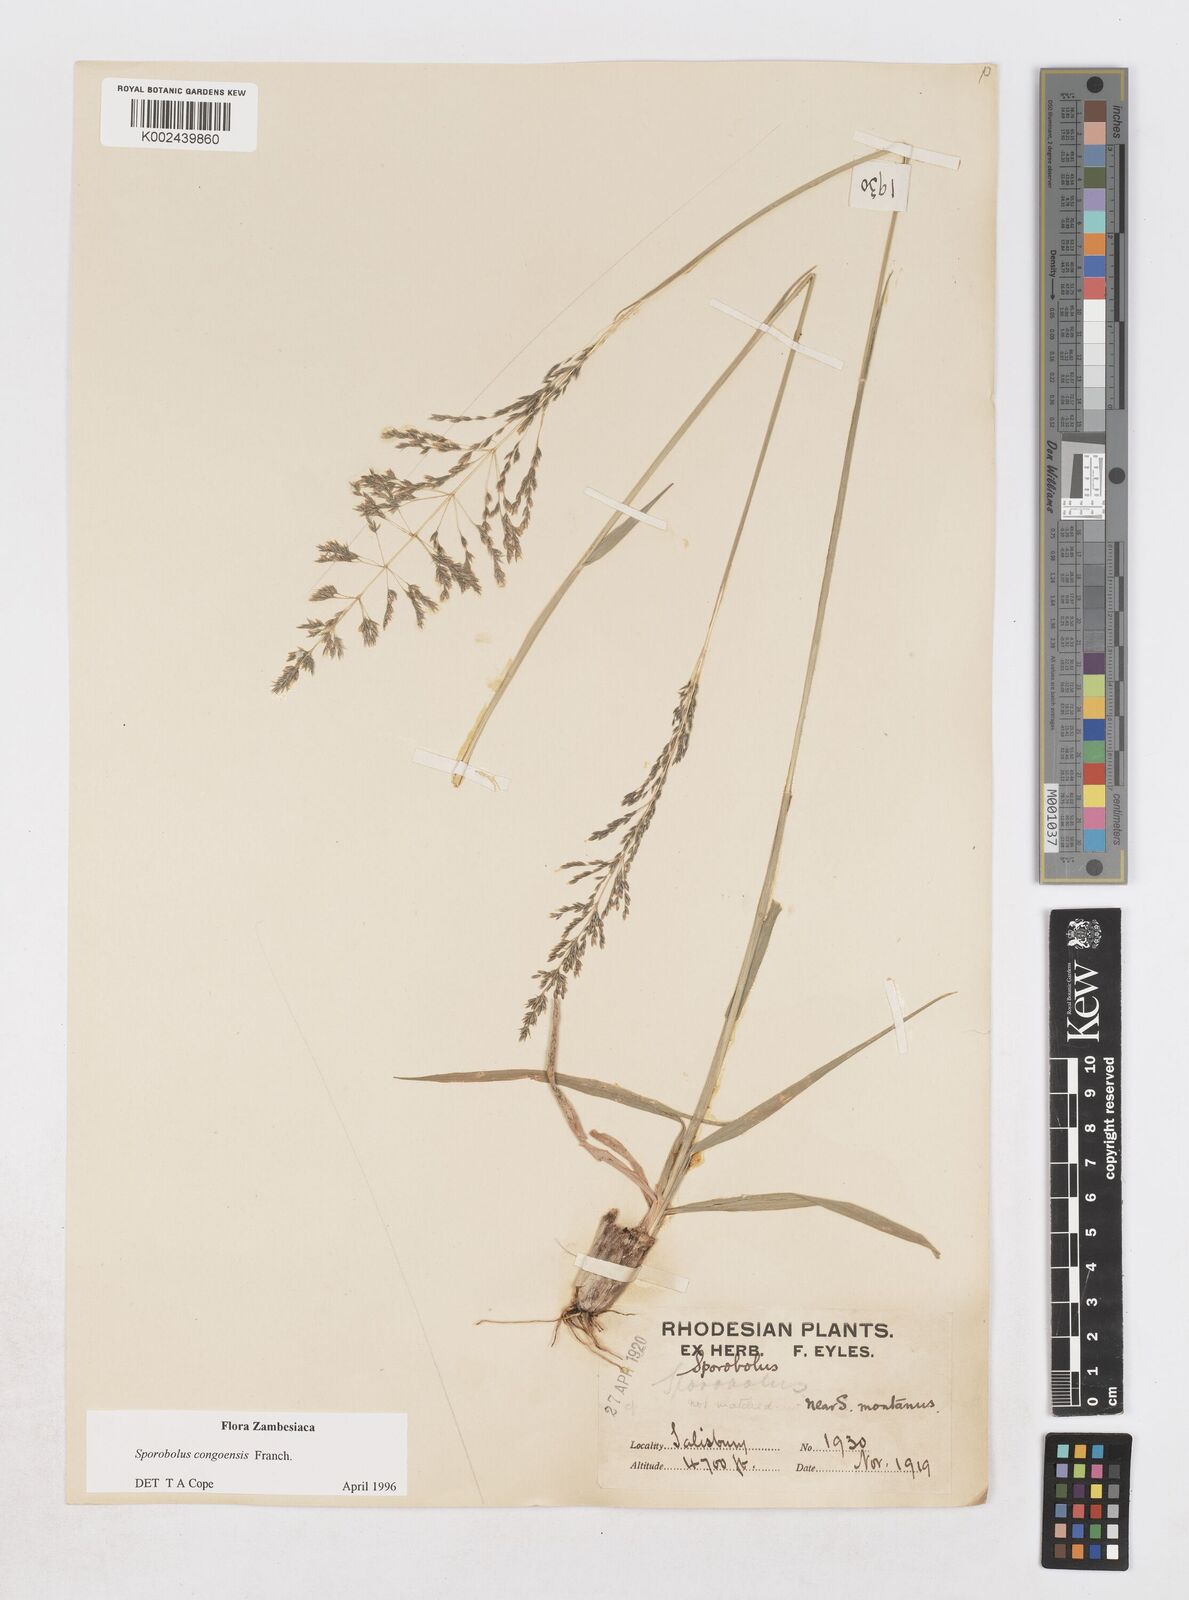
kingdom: Plantae
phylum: Tracheophyta
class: Liliopsida
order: Poales
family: Poaceae
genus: Sporobolus
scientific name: Sporobolus congoensis
